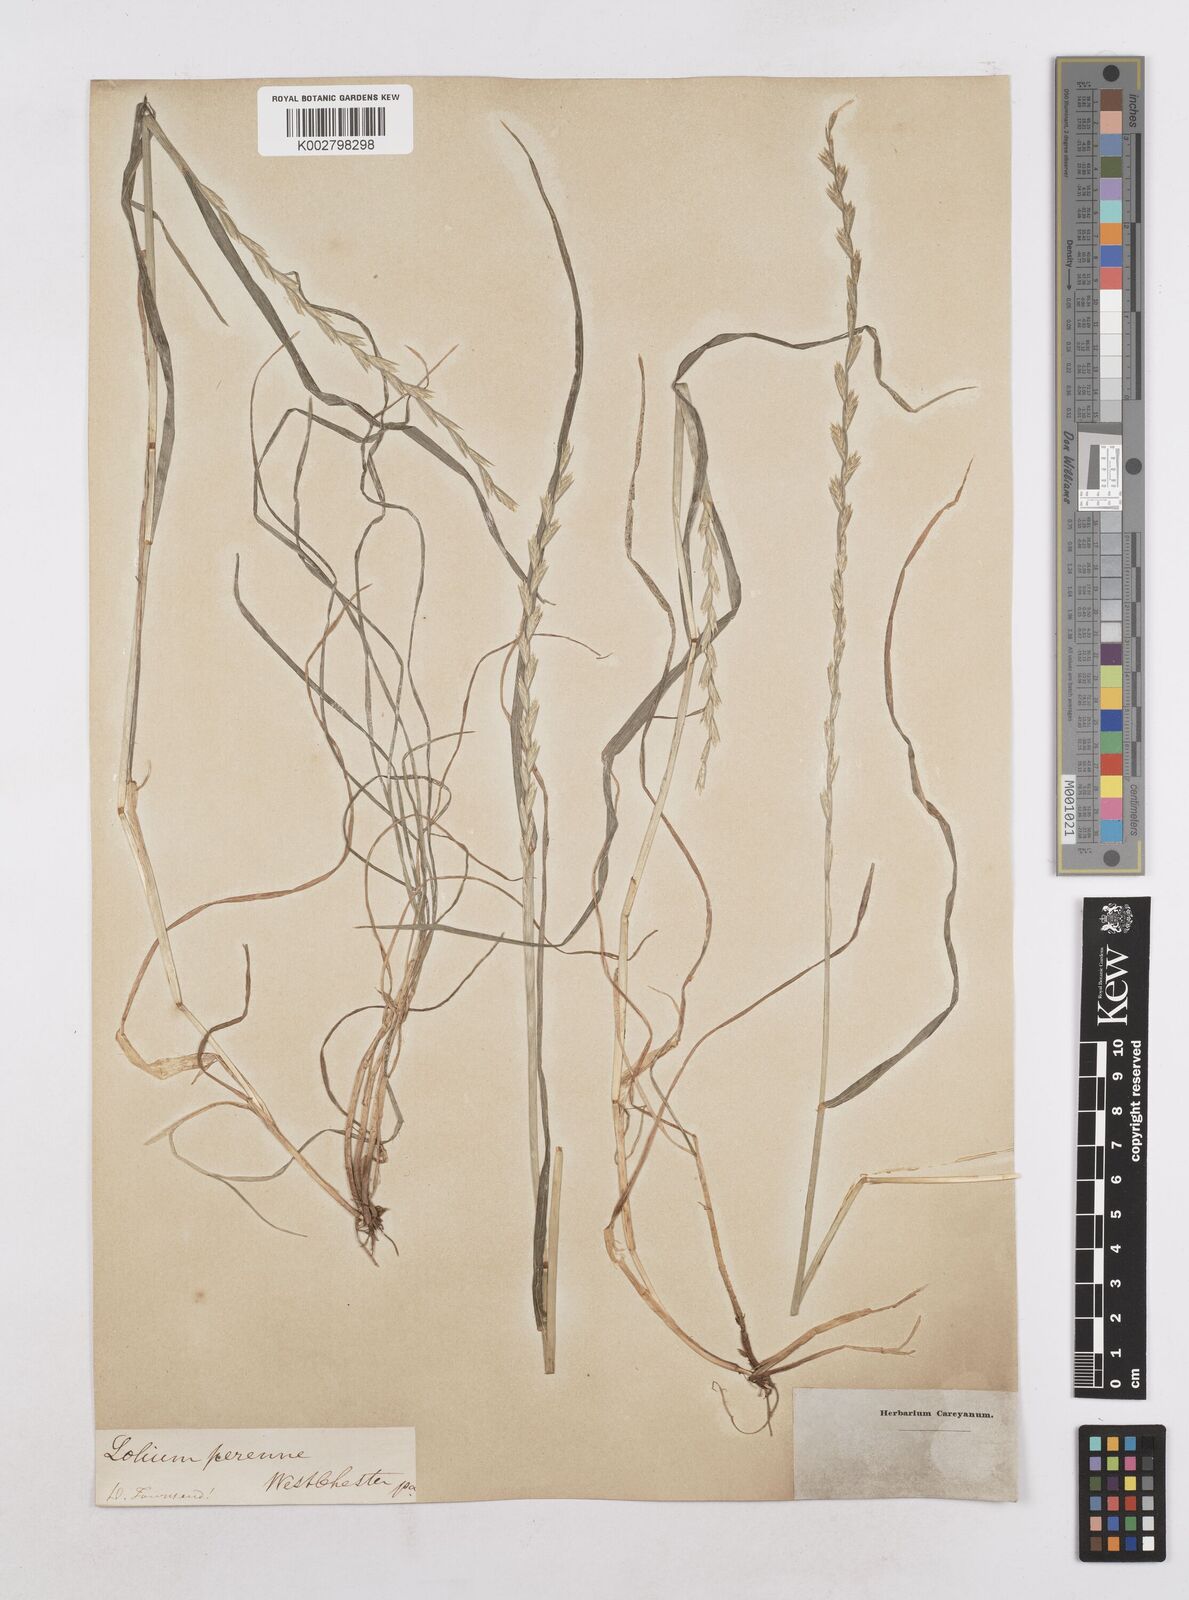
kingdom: Plantae
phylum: Tracheophyta
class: Liliopsida
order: Poales
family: Poaceae
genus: Lolium
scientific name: Lolium perenne
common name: Perennial ryegrass
